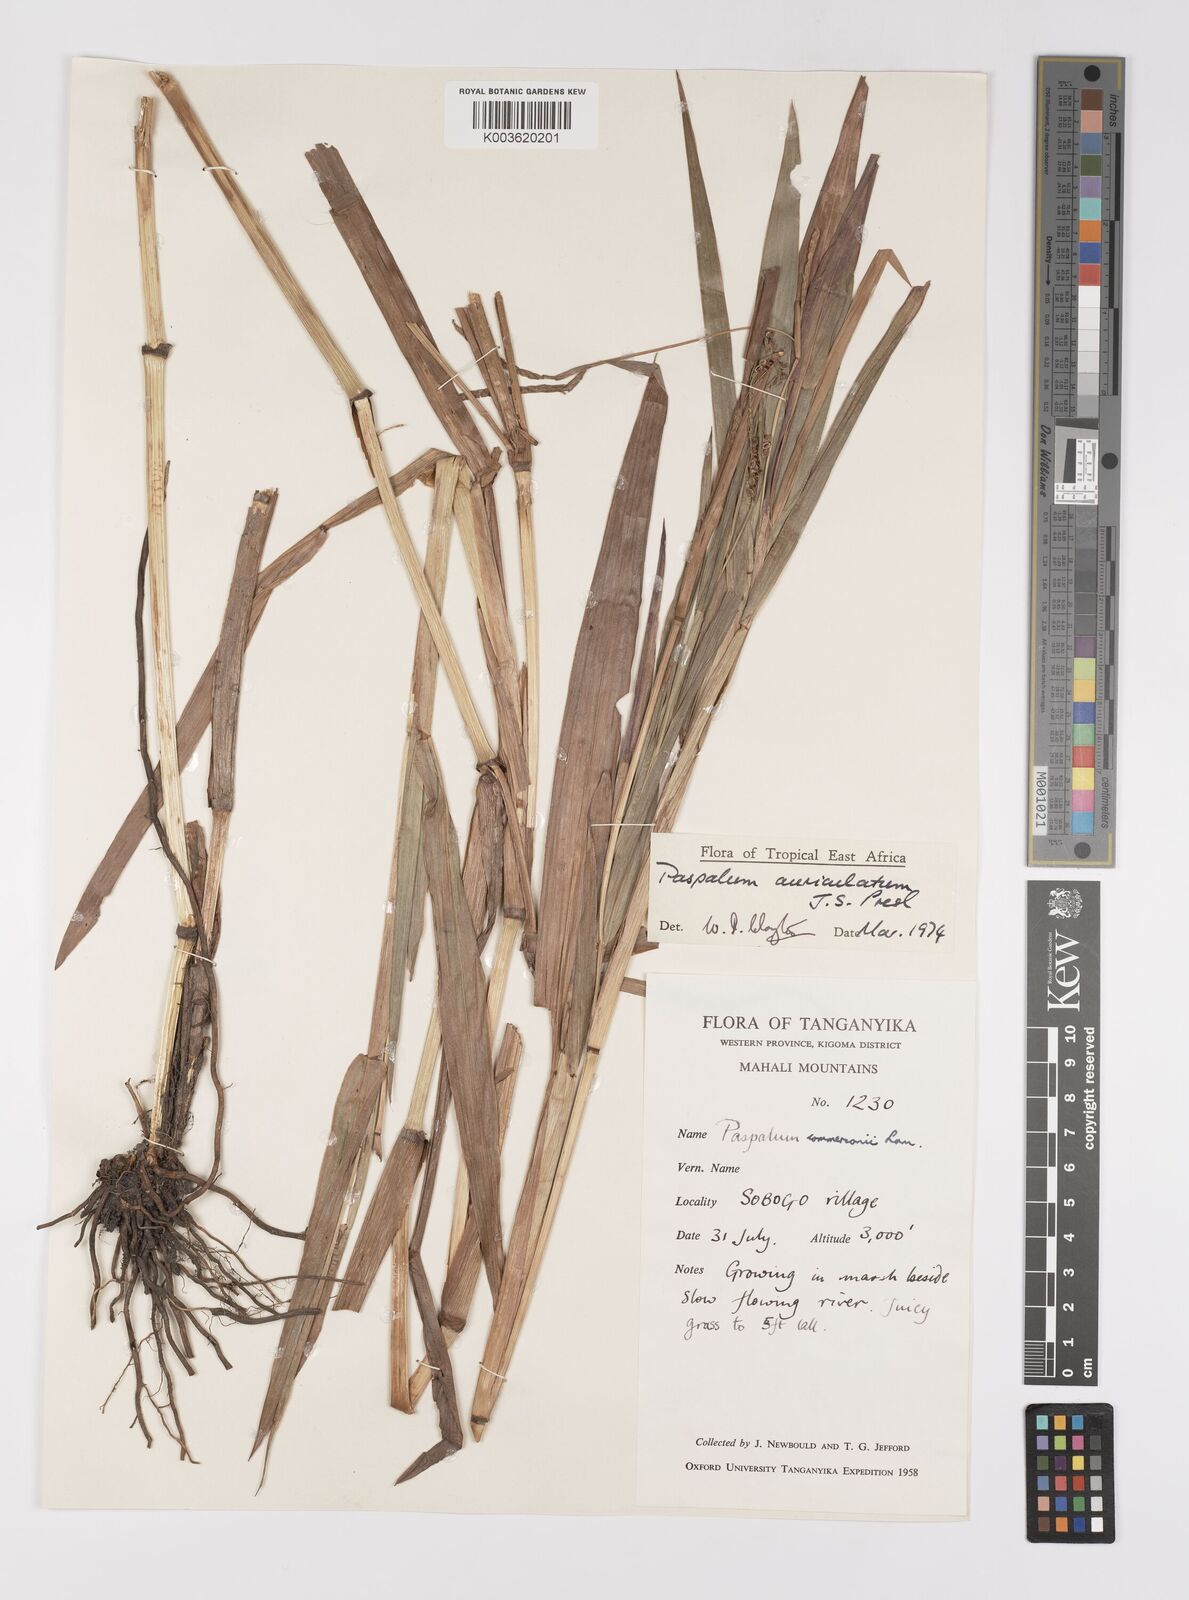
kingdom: Plantae
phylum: Tracheophyta
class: Liliopsida
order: Poales
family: Poaceae
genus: Paspalum
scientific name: Paspalum lamprocaryon
